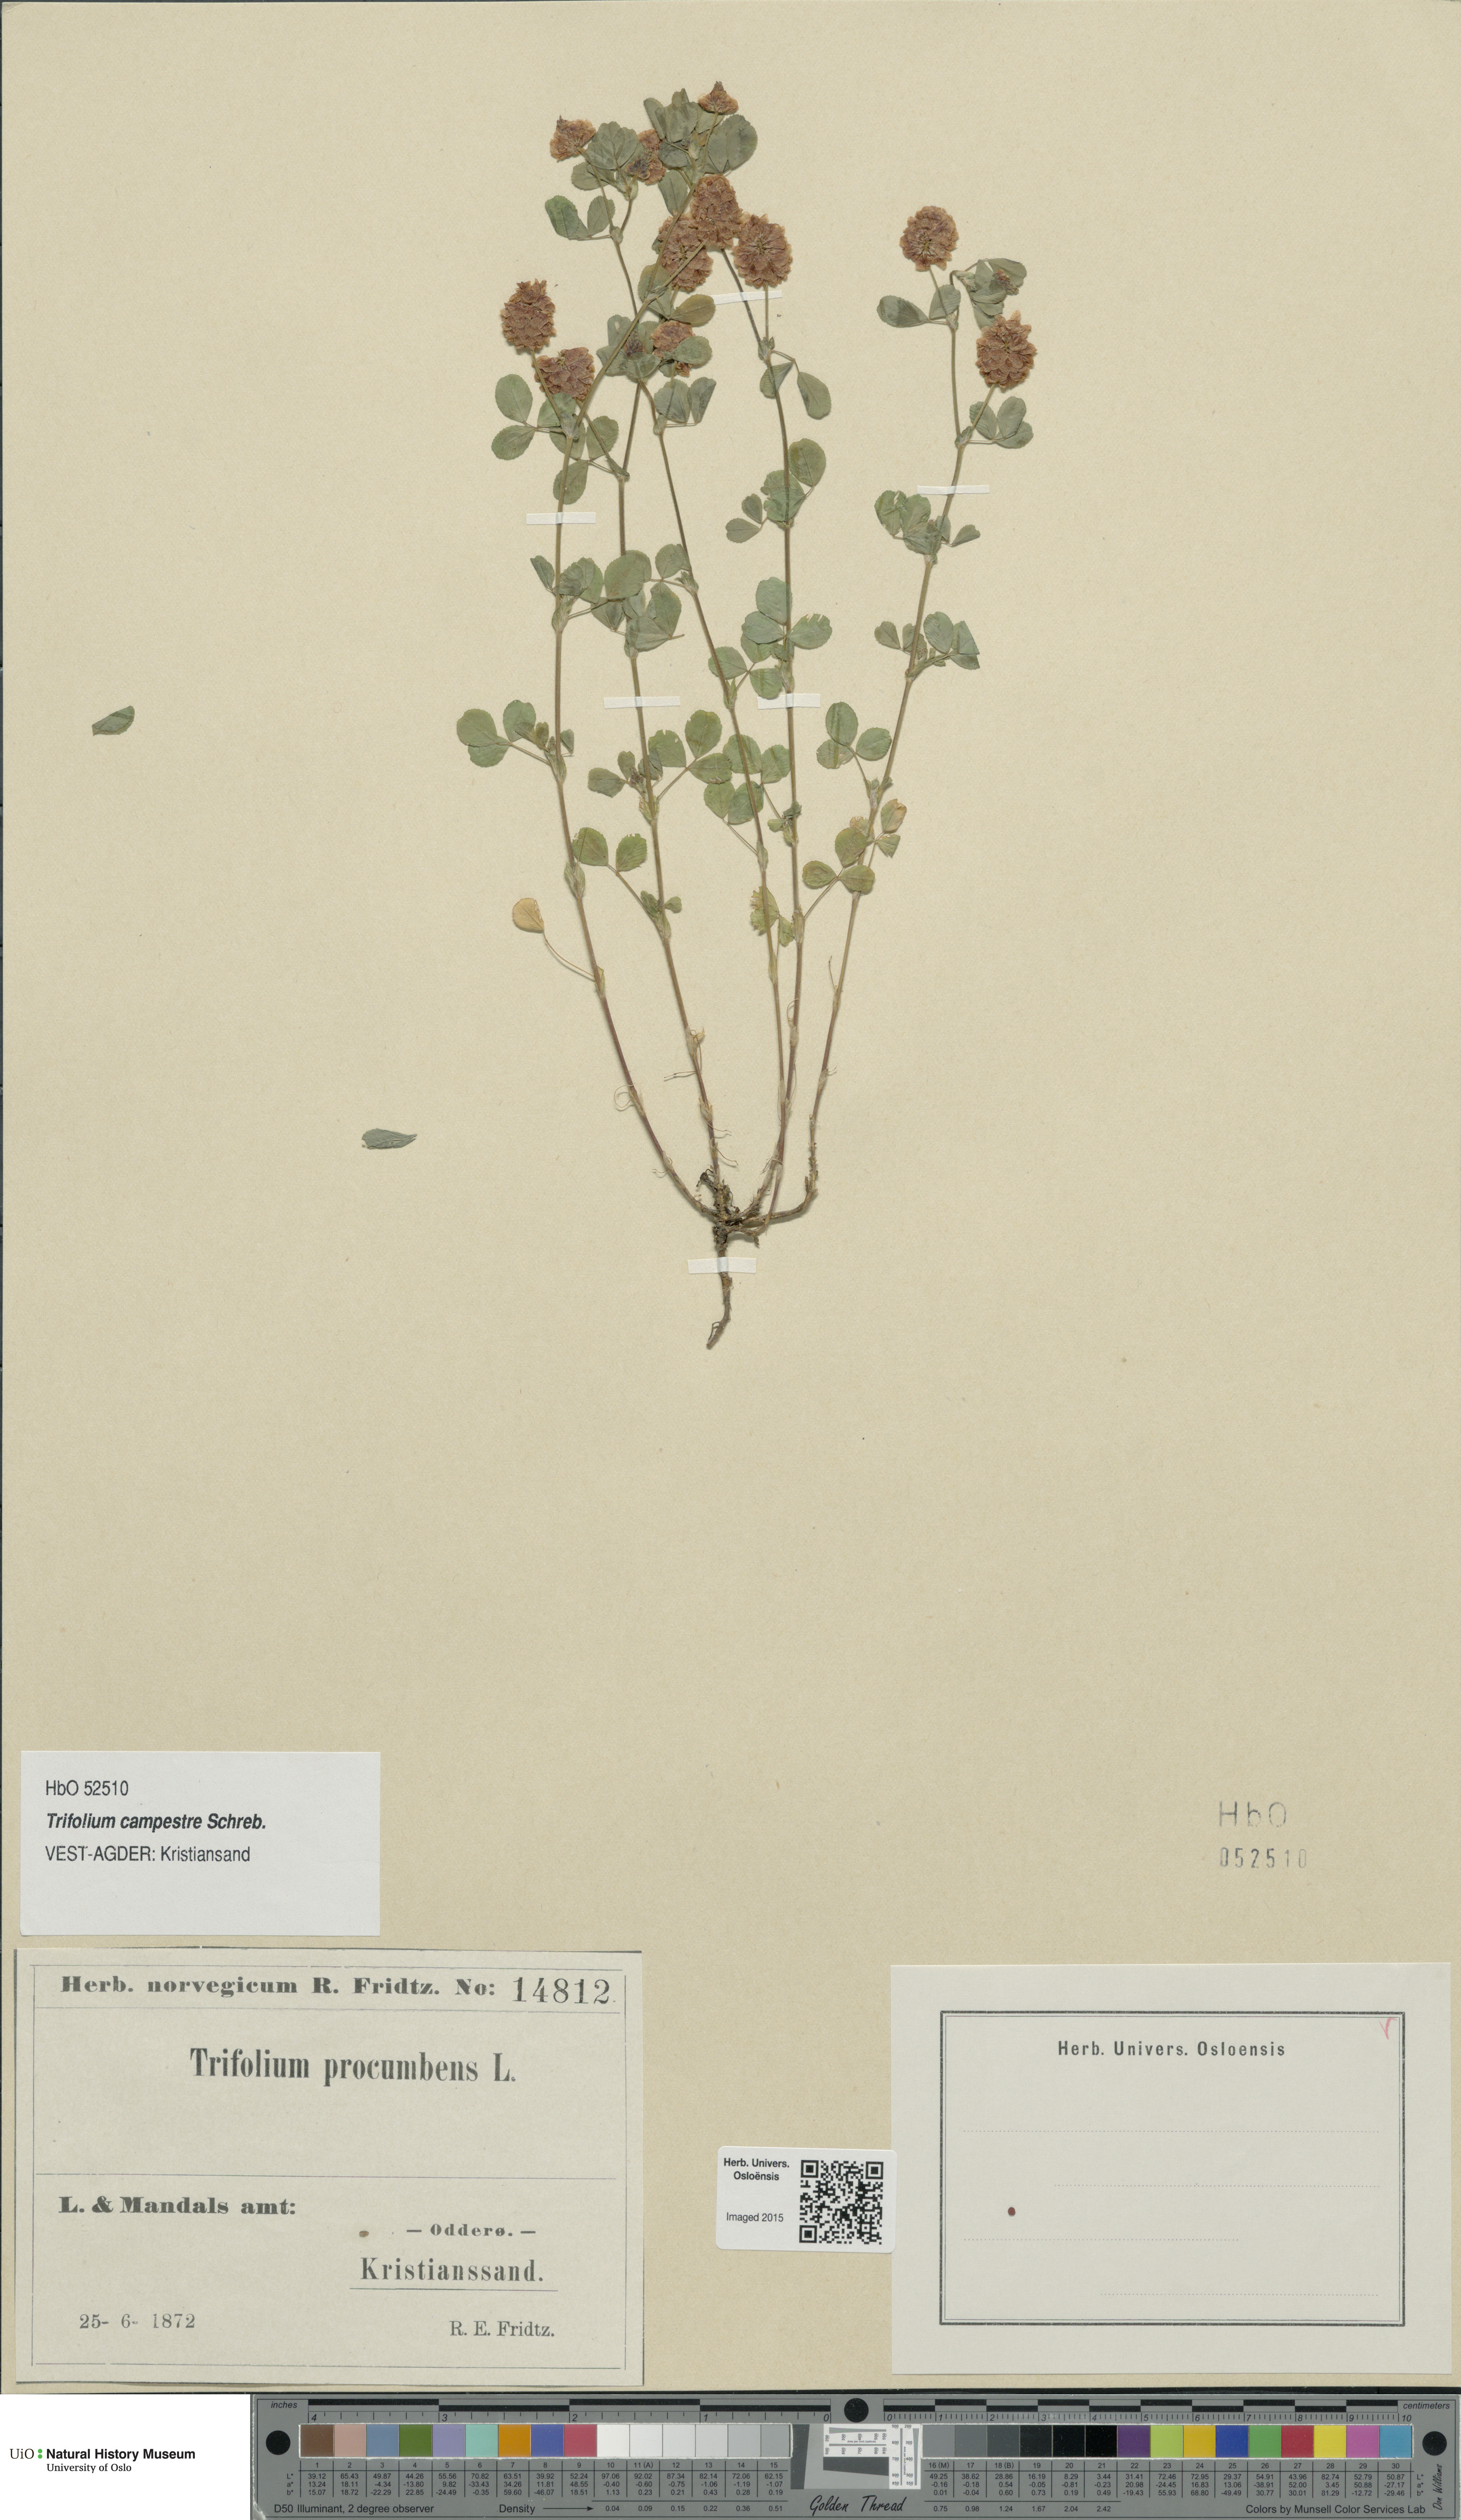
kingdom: Plantae
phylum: Tracheophyta
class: Magnoliopsida
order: Fabales
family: Fabaceae
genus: Trifolium
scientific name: Trifolium campestre
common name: Field clover
